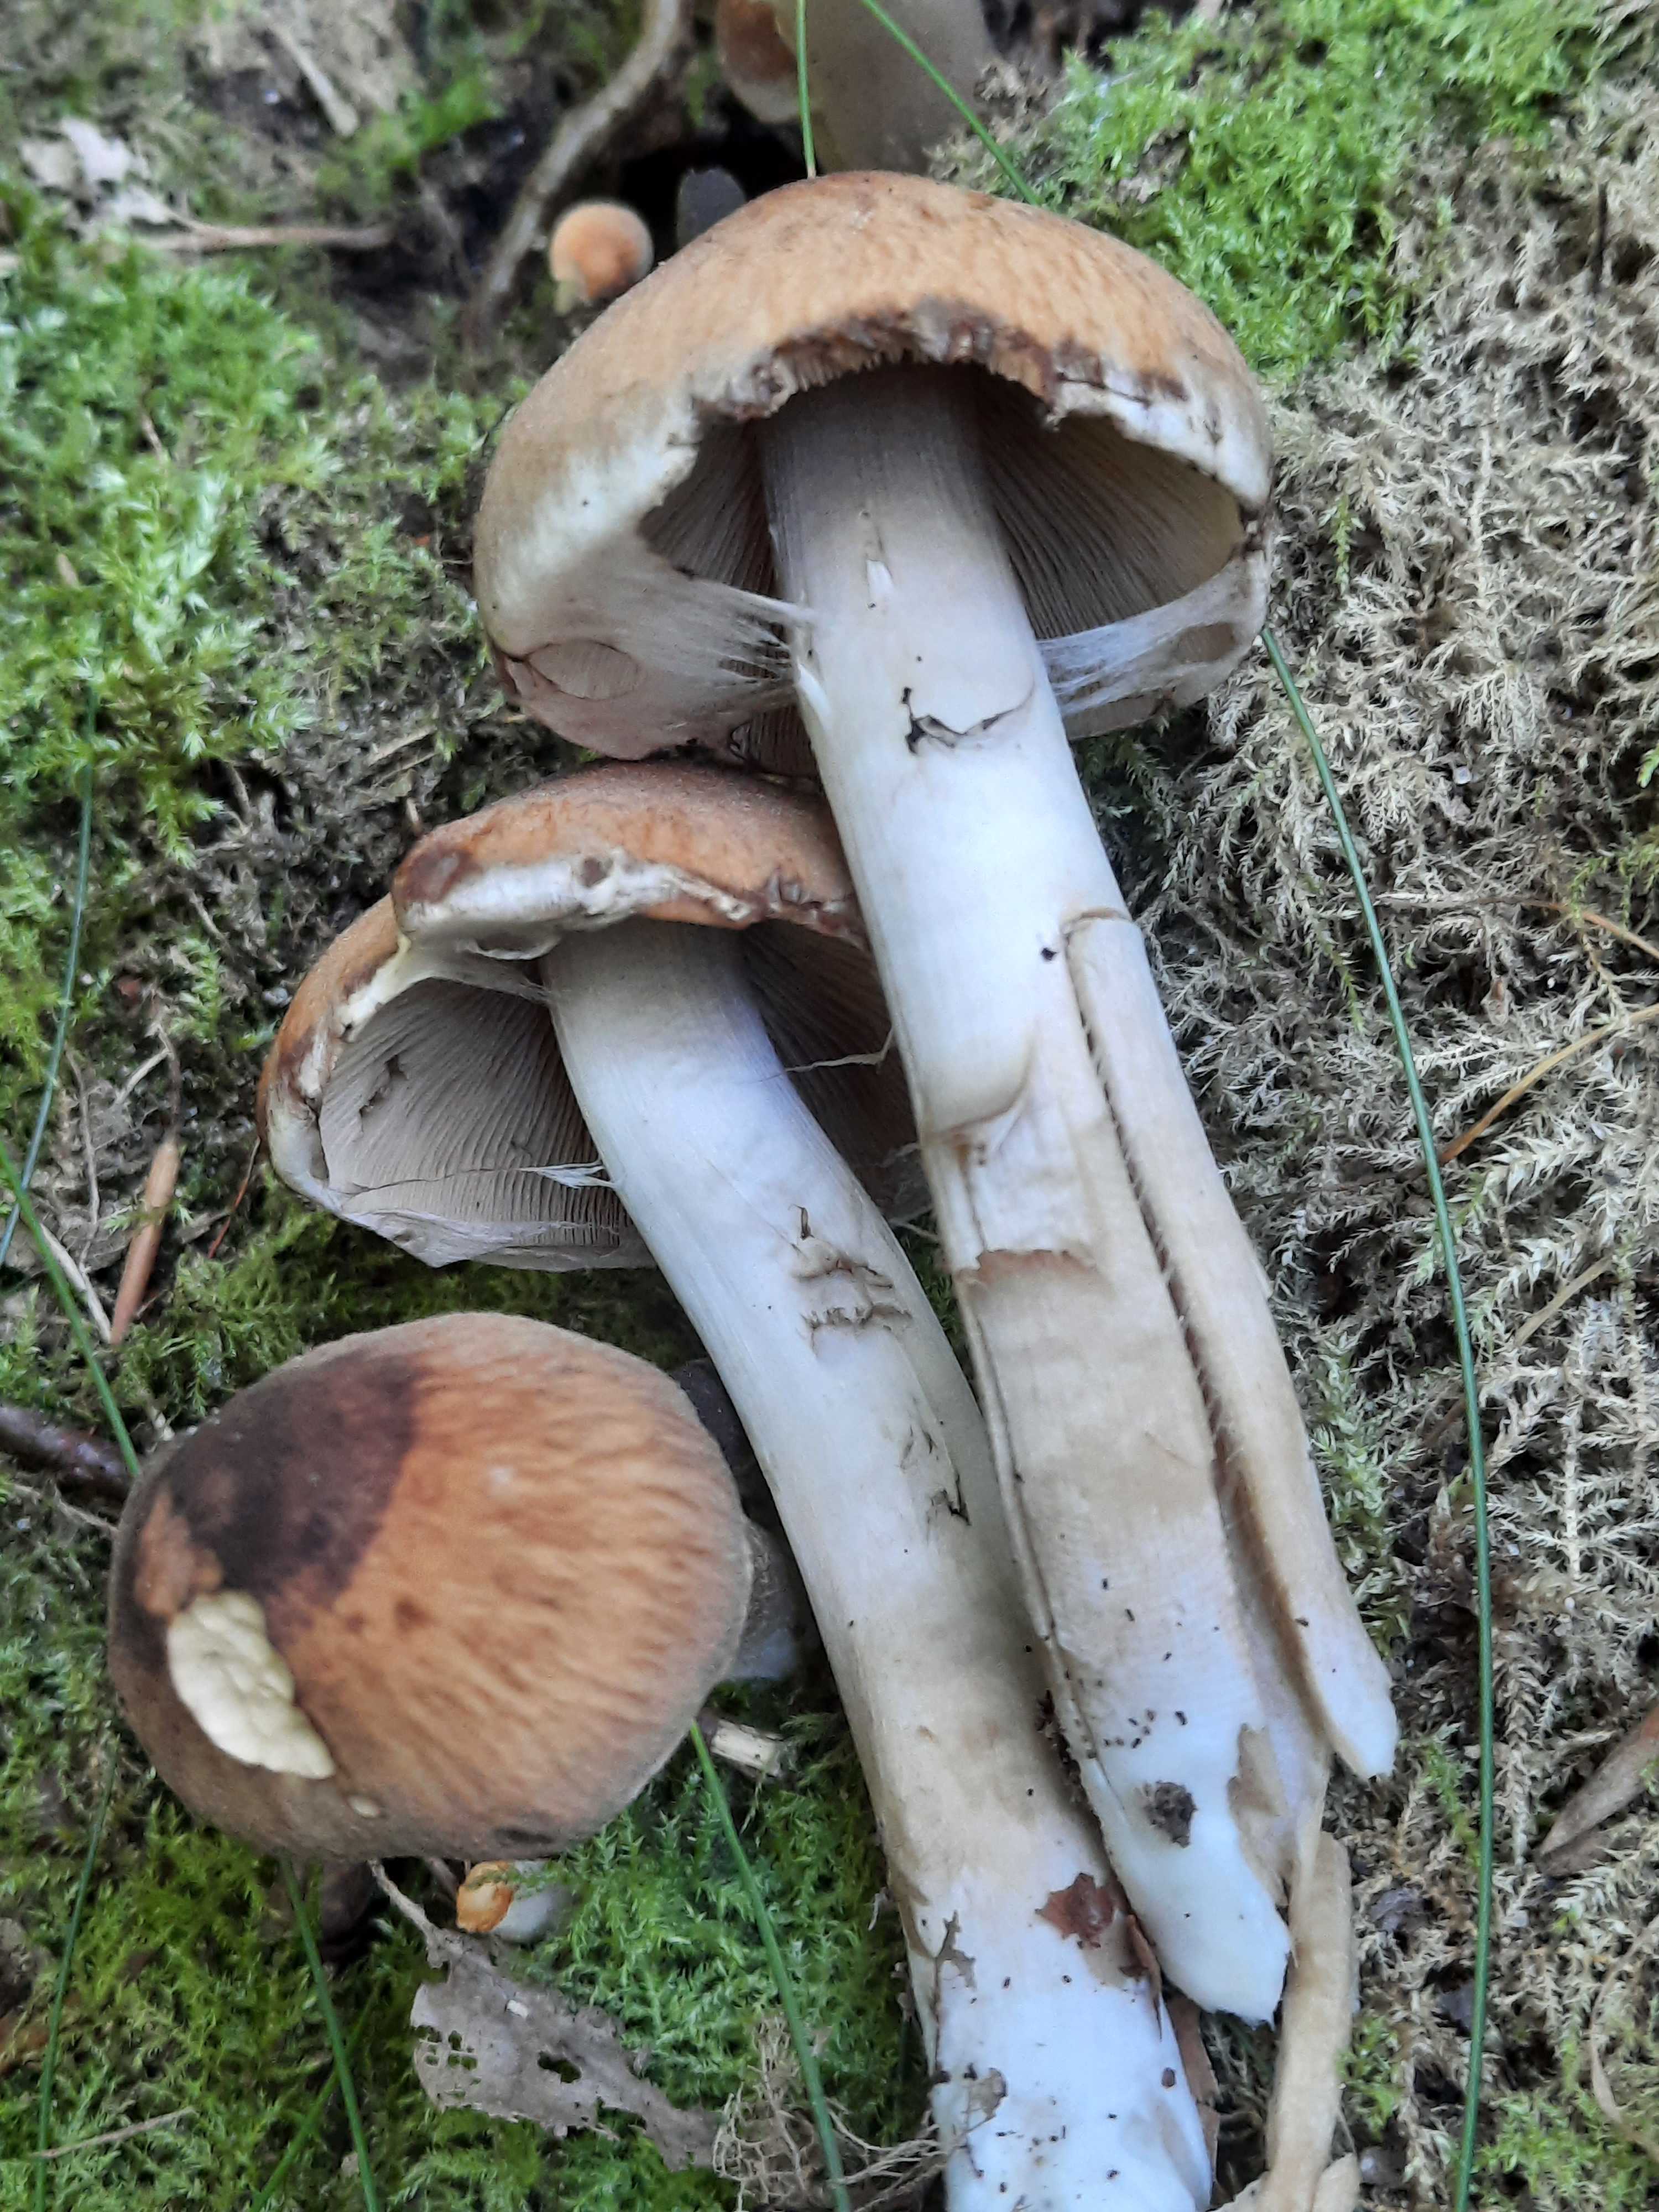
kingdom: Fungi
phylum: Basidiomycota
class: Agaricomycetes
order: Agaricales
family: Psathyrellaceae
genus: Psathyrella
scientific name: Psathyrella piluliformis
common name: lysstokket mørkhat
